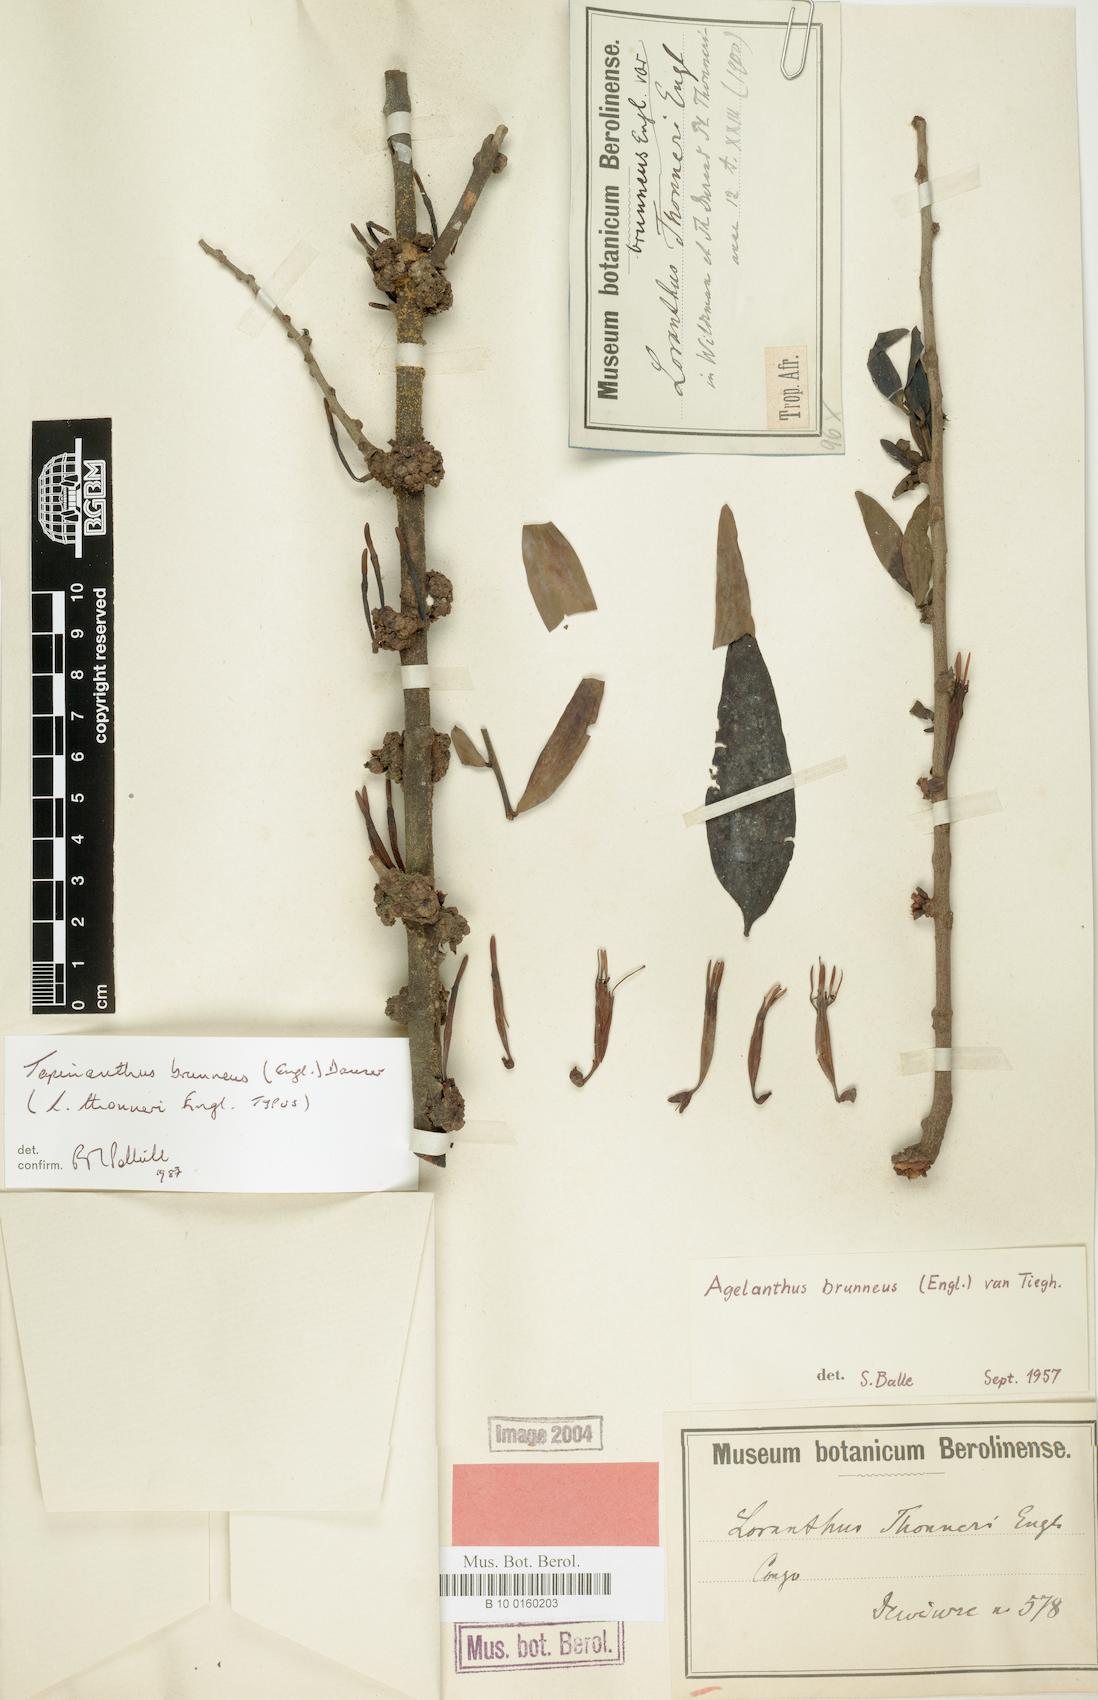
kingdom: Plantae
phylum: Tracheophyta
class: Magnoliopsida
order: Santalales
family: Loranthaceae
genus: Agelanthus
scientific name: Agelanthus brunneus
